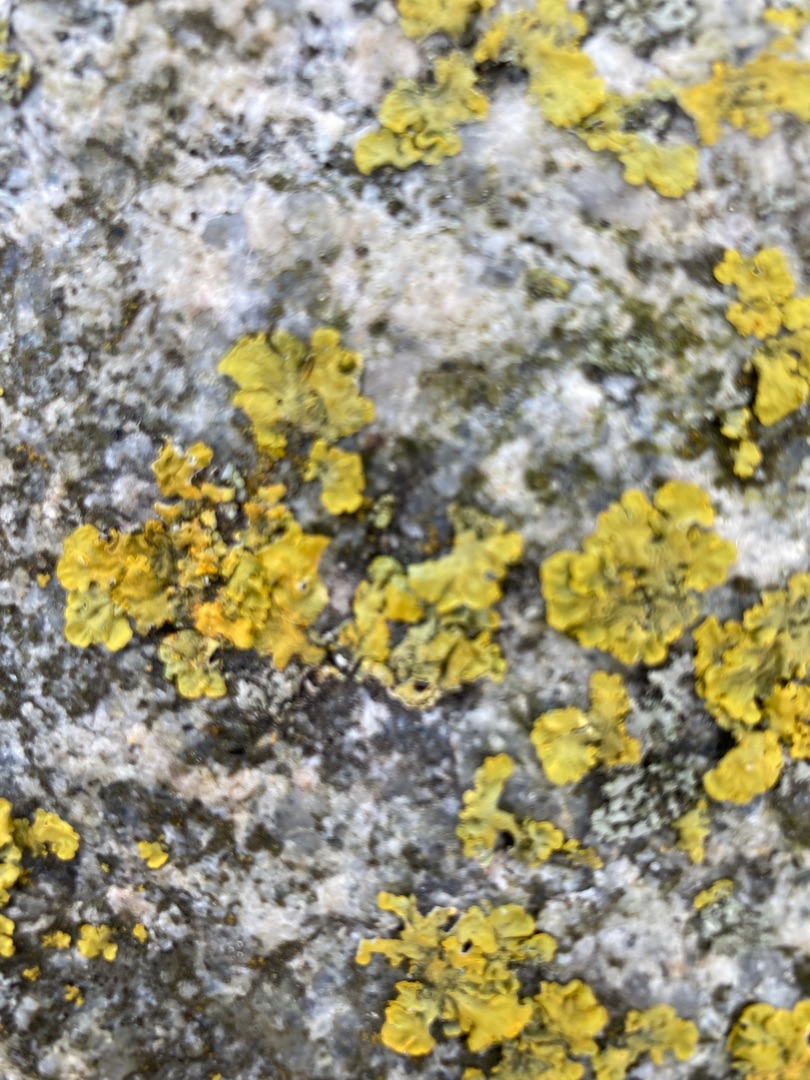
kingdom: Fungi
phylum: Ascomycota
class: Lecanoromycetes
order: Teloschistales
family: Teloschistaceae
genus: Xanthoria
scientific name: Xanthoria parietina
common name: Almindelig væggelav
